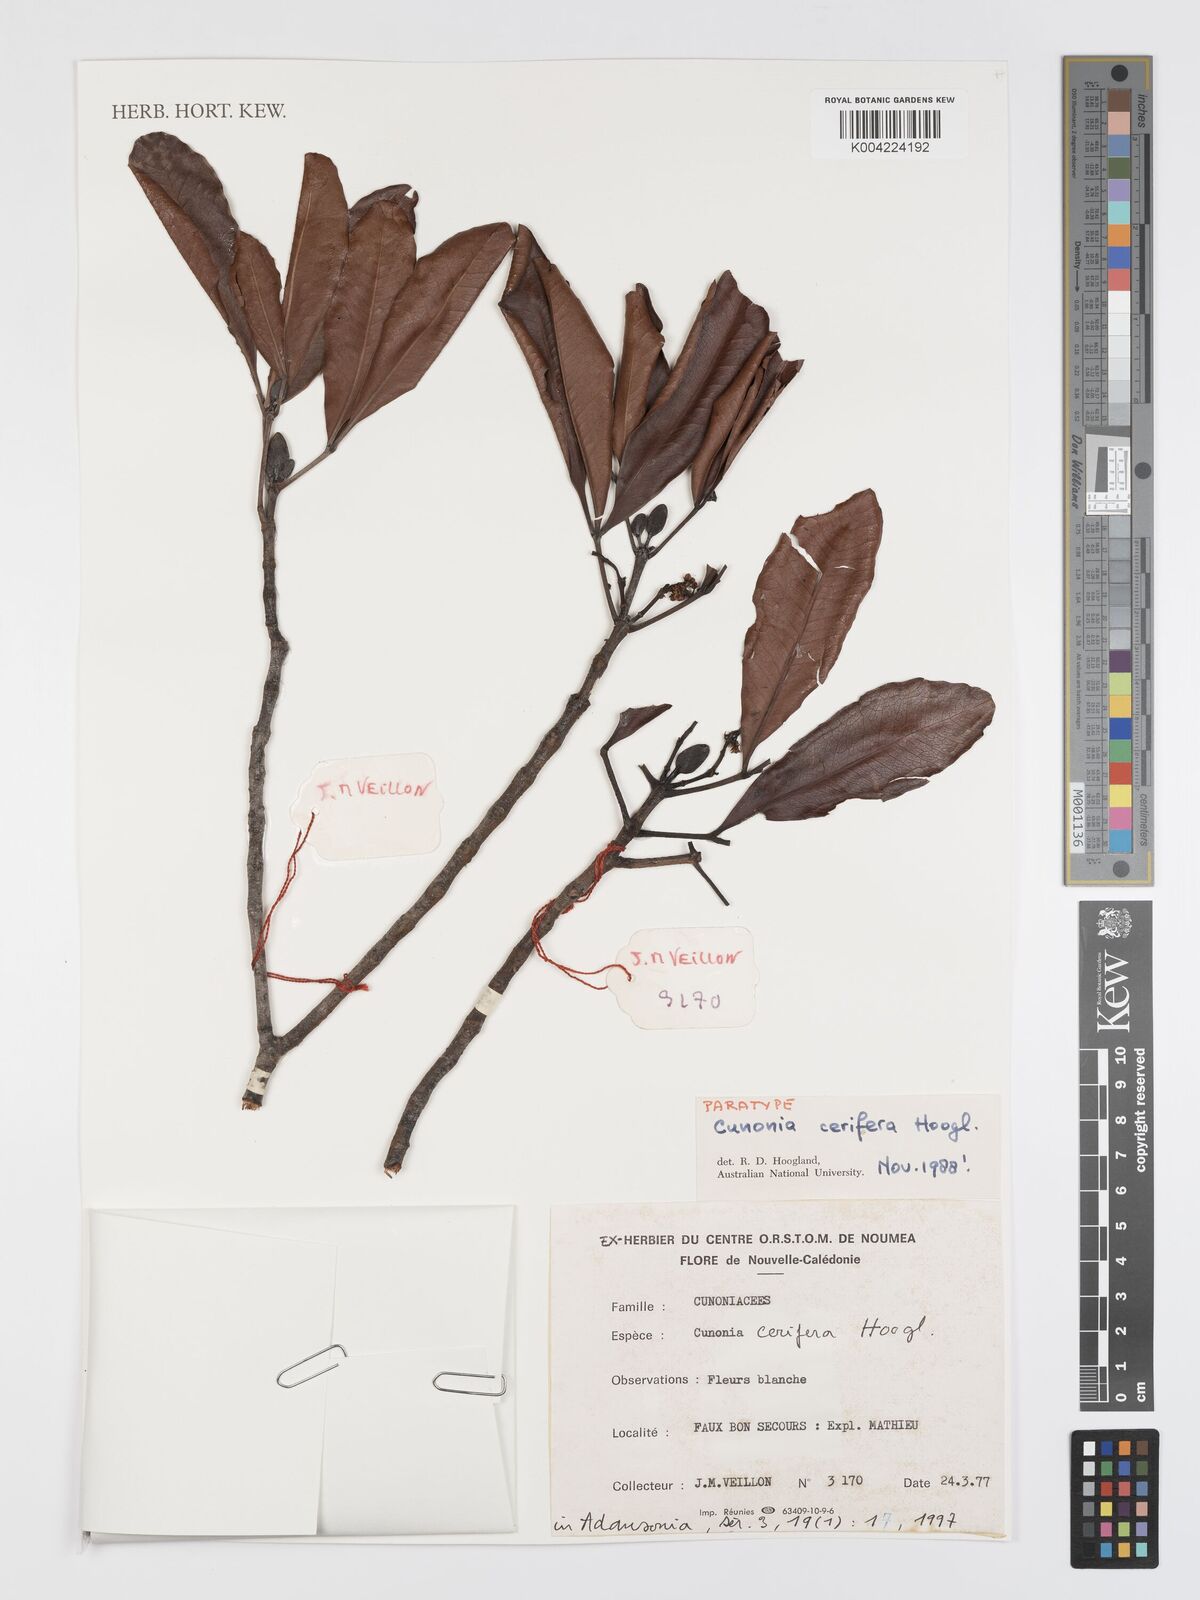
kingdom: Plantae
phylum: Tracheophyta
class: Magnoliopsida
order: Oxalidales
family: Cunoniaceae
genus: Cunonia
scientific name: Cunonia cerifera
